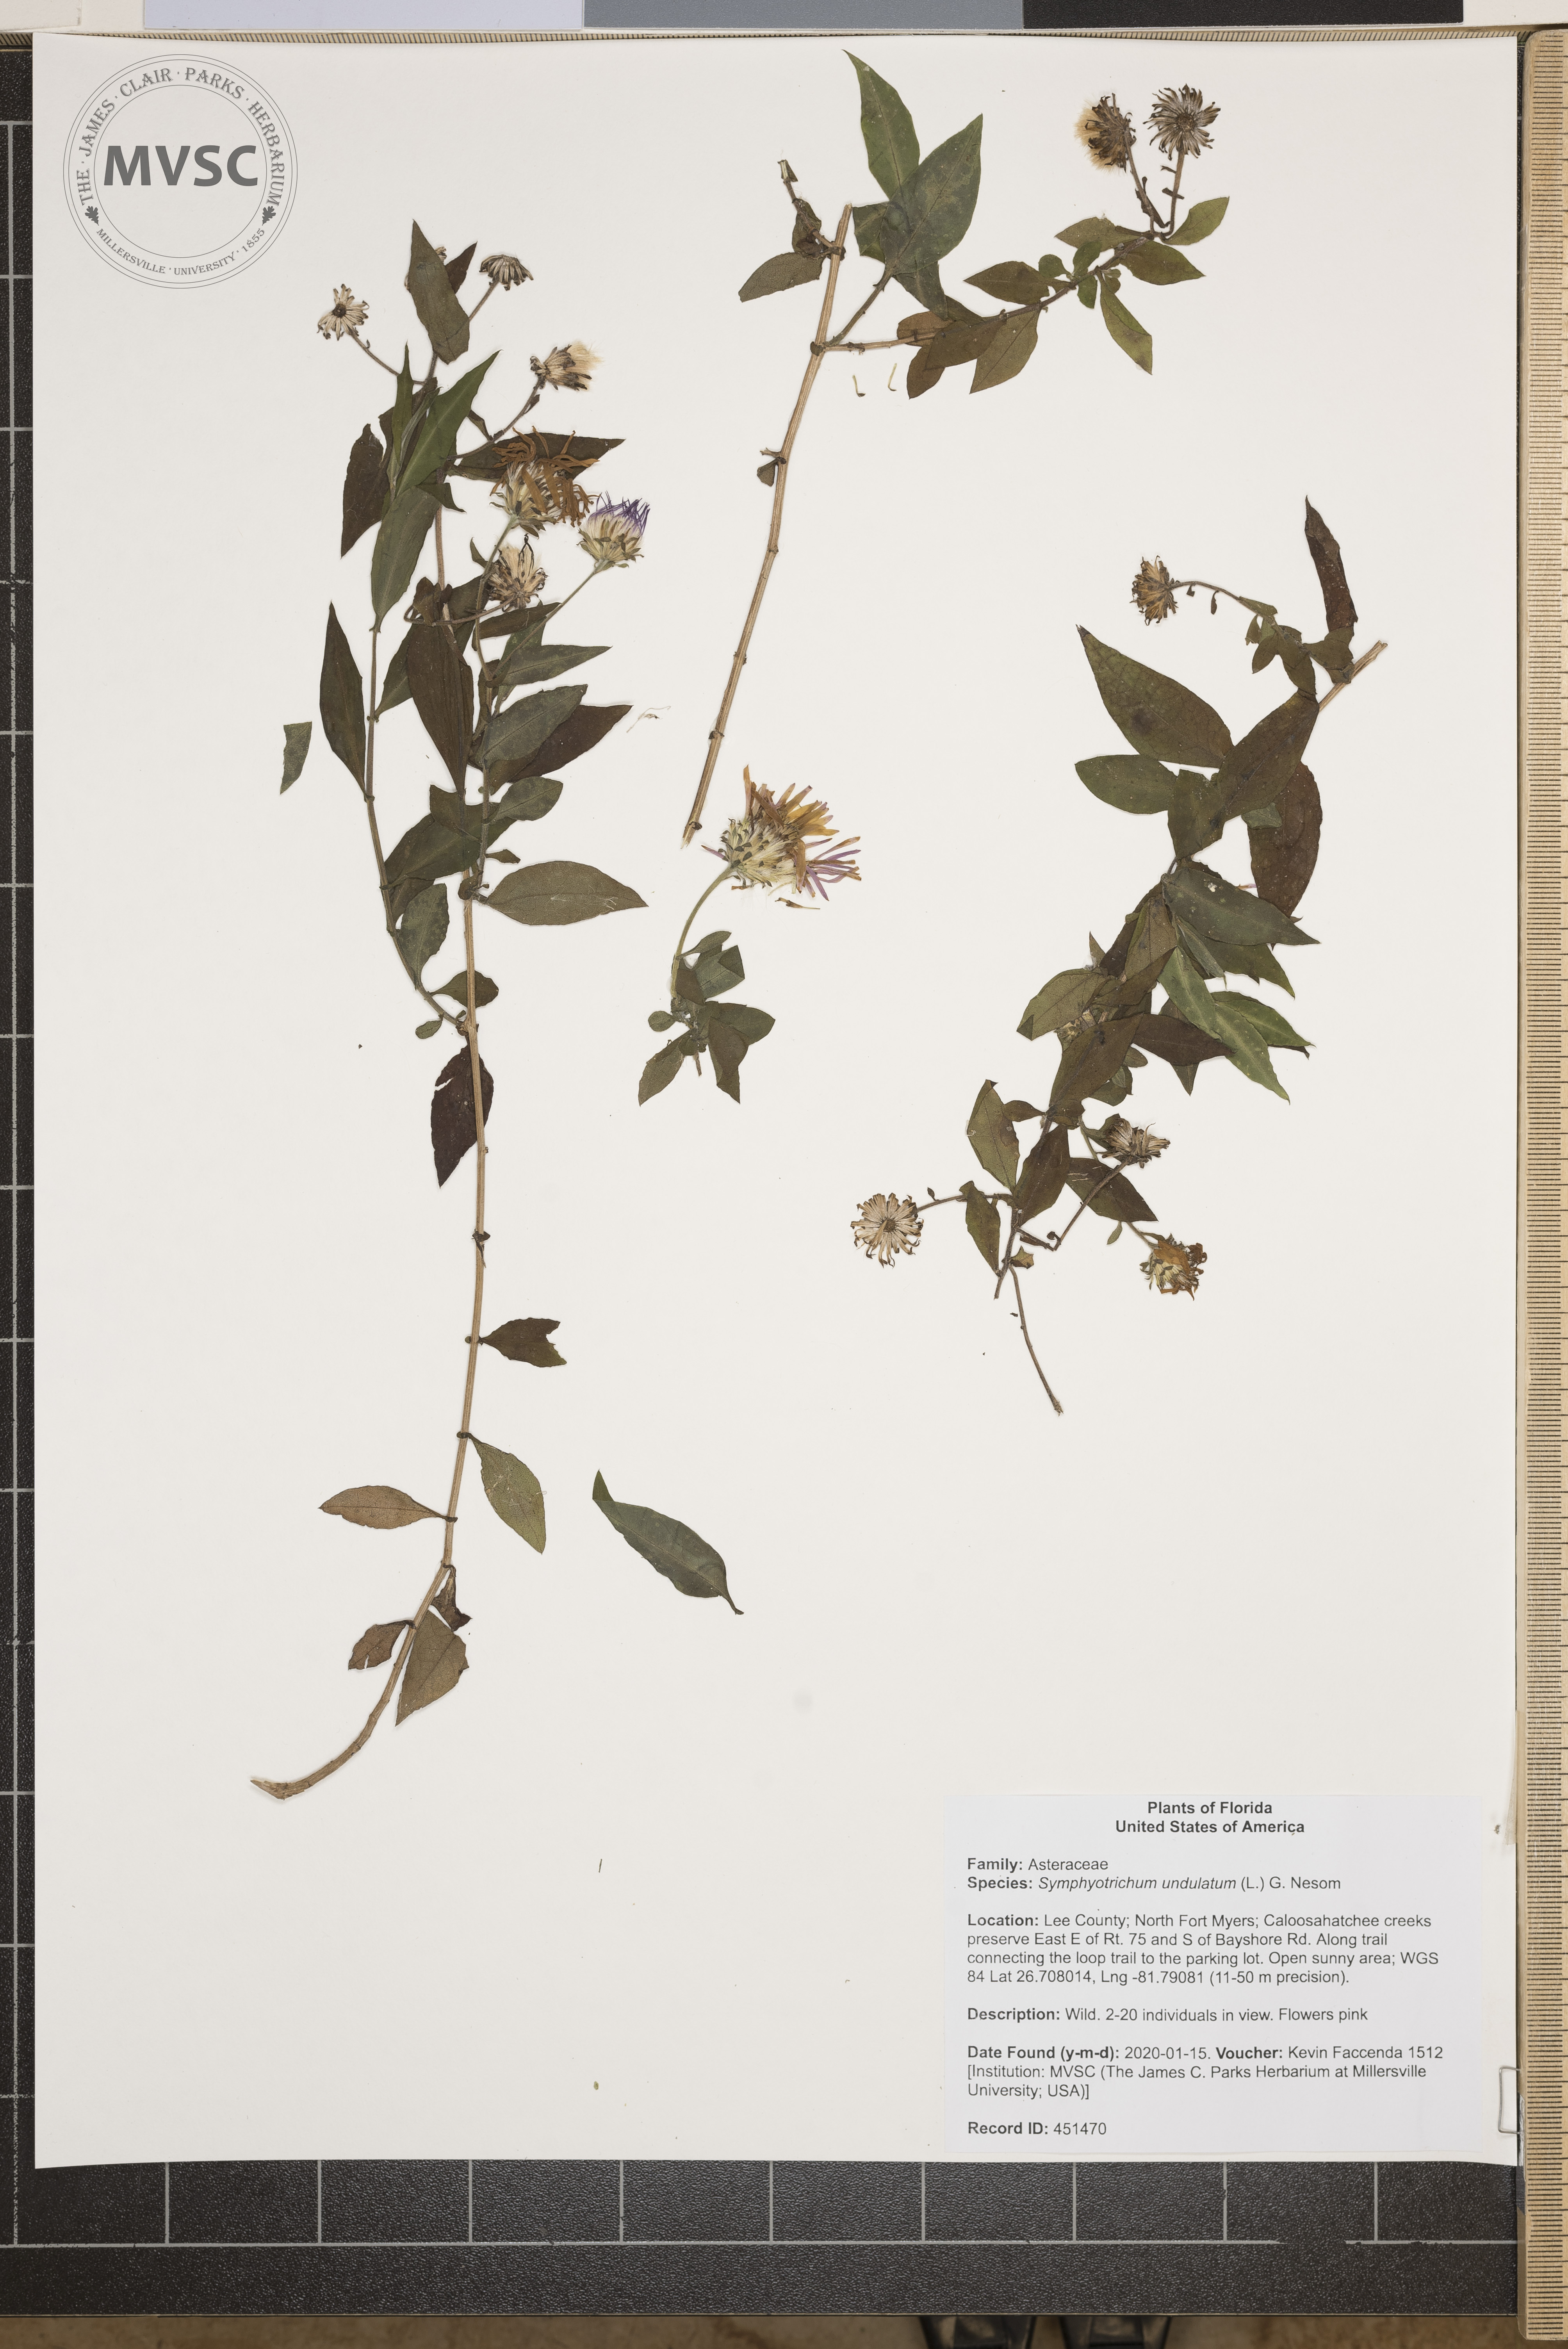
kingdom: Plantae
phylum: Tracheophyta
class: Magnoliopsida
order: Asterales
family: Asteraceae
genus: Symphyotrichum
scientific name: Symphyotrichum undulatum
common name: Clasping heart-leaf aster
